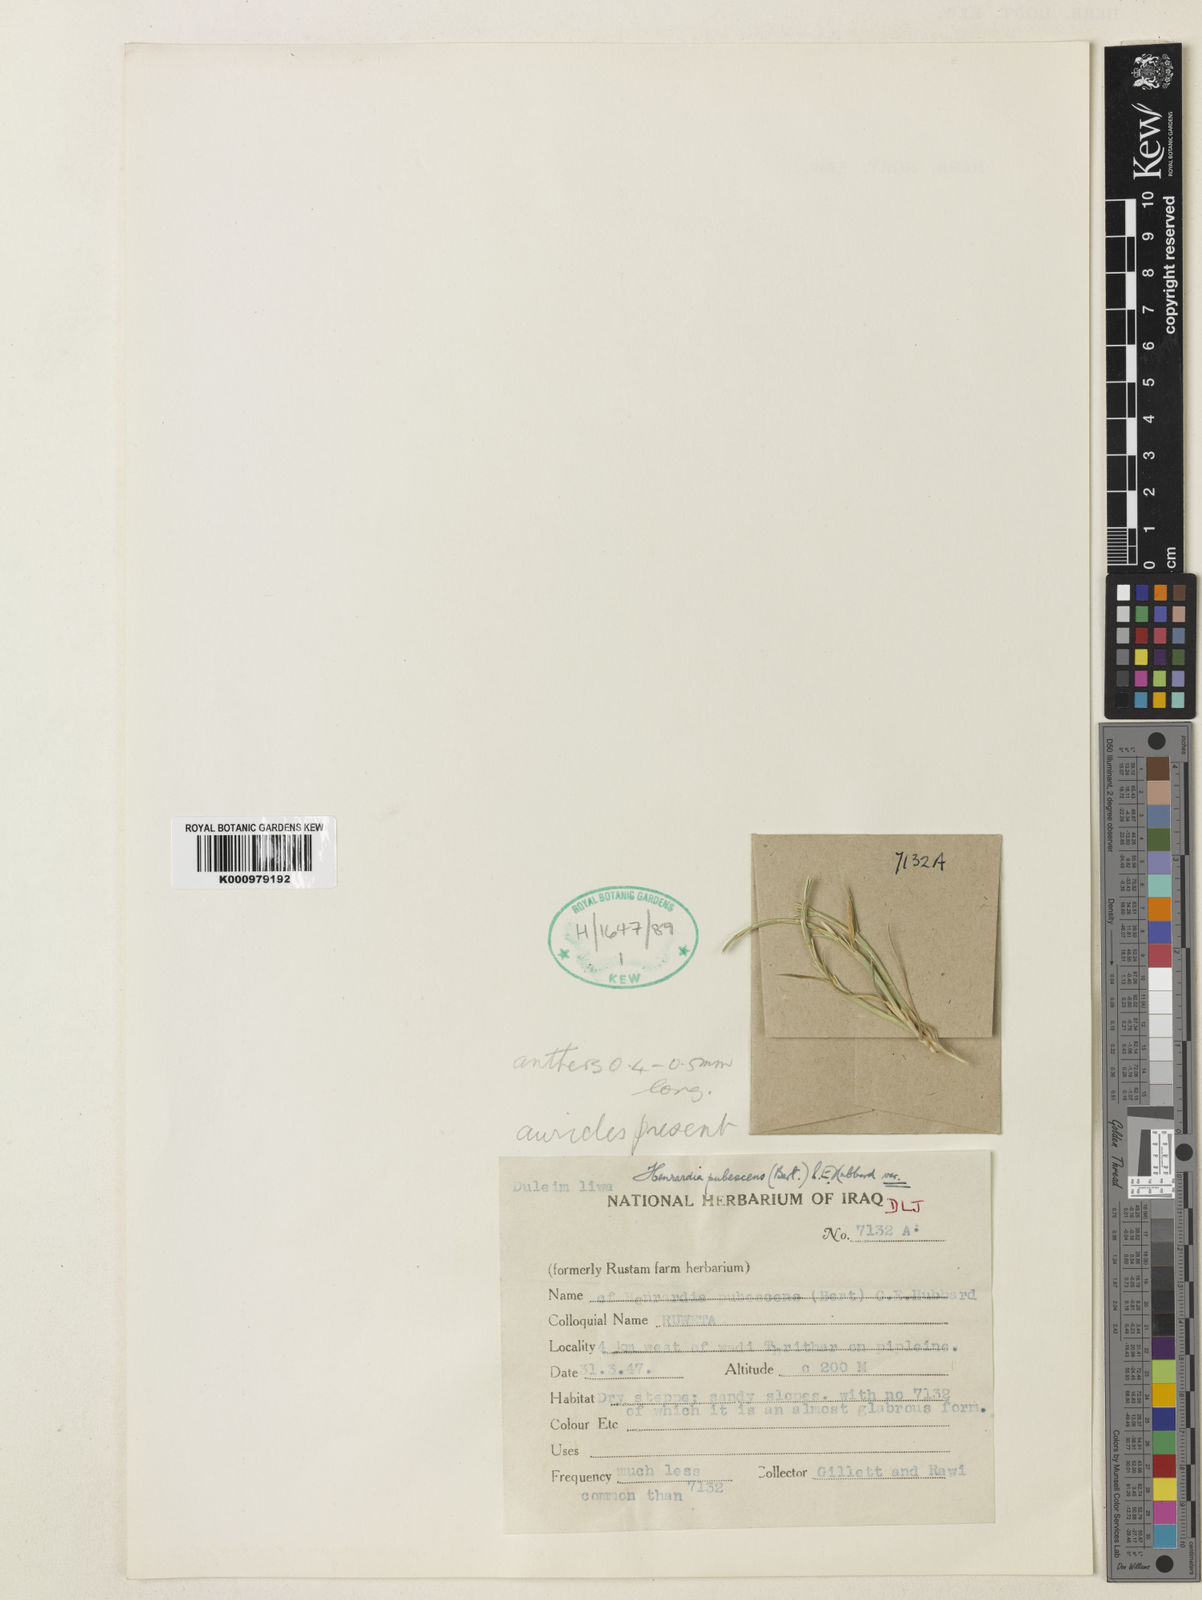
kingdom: Plantae
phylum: Tracheophyta
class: Liliopsida
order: Poales
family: Poaceae
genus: Henrardia
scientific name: Henrardia pubescens
